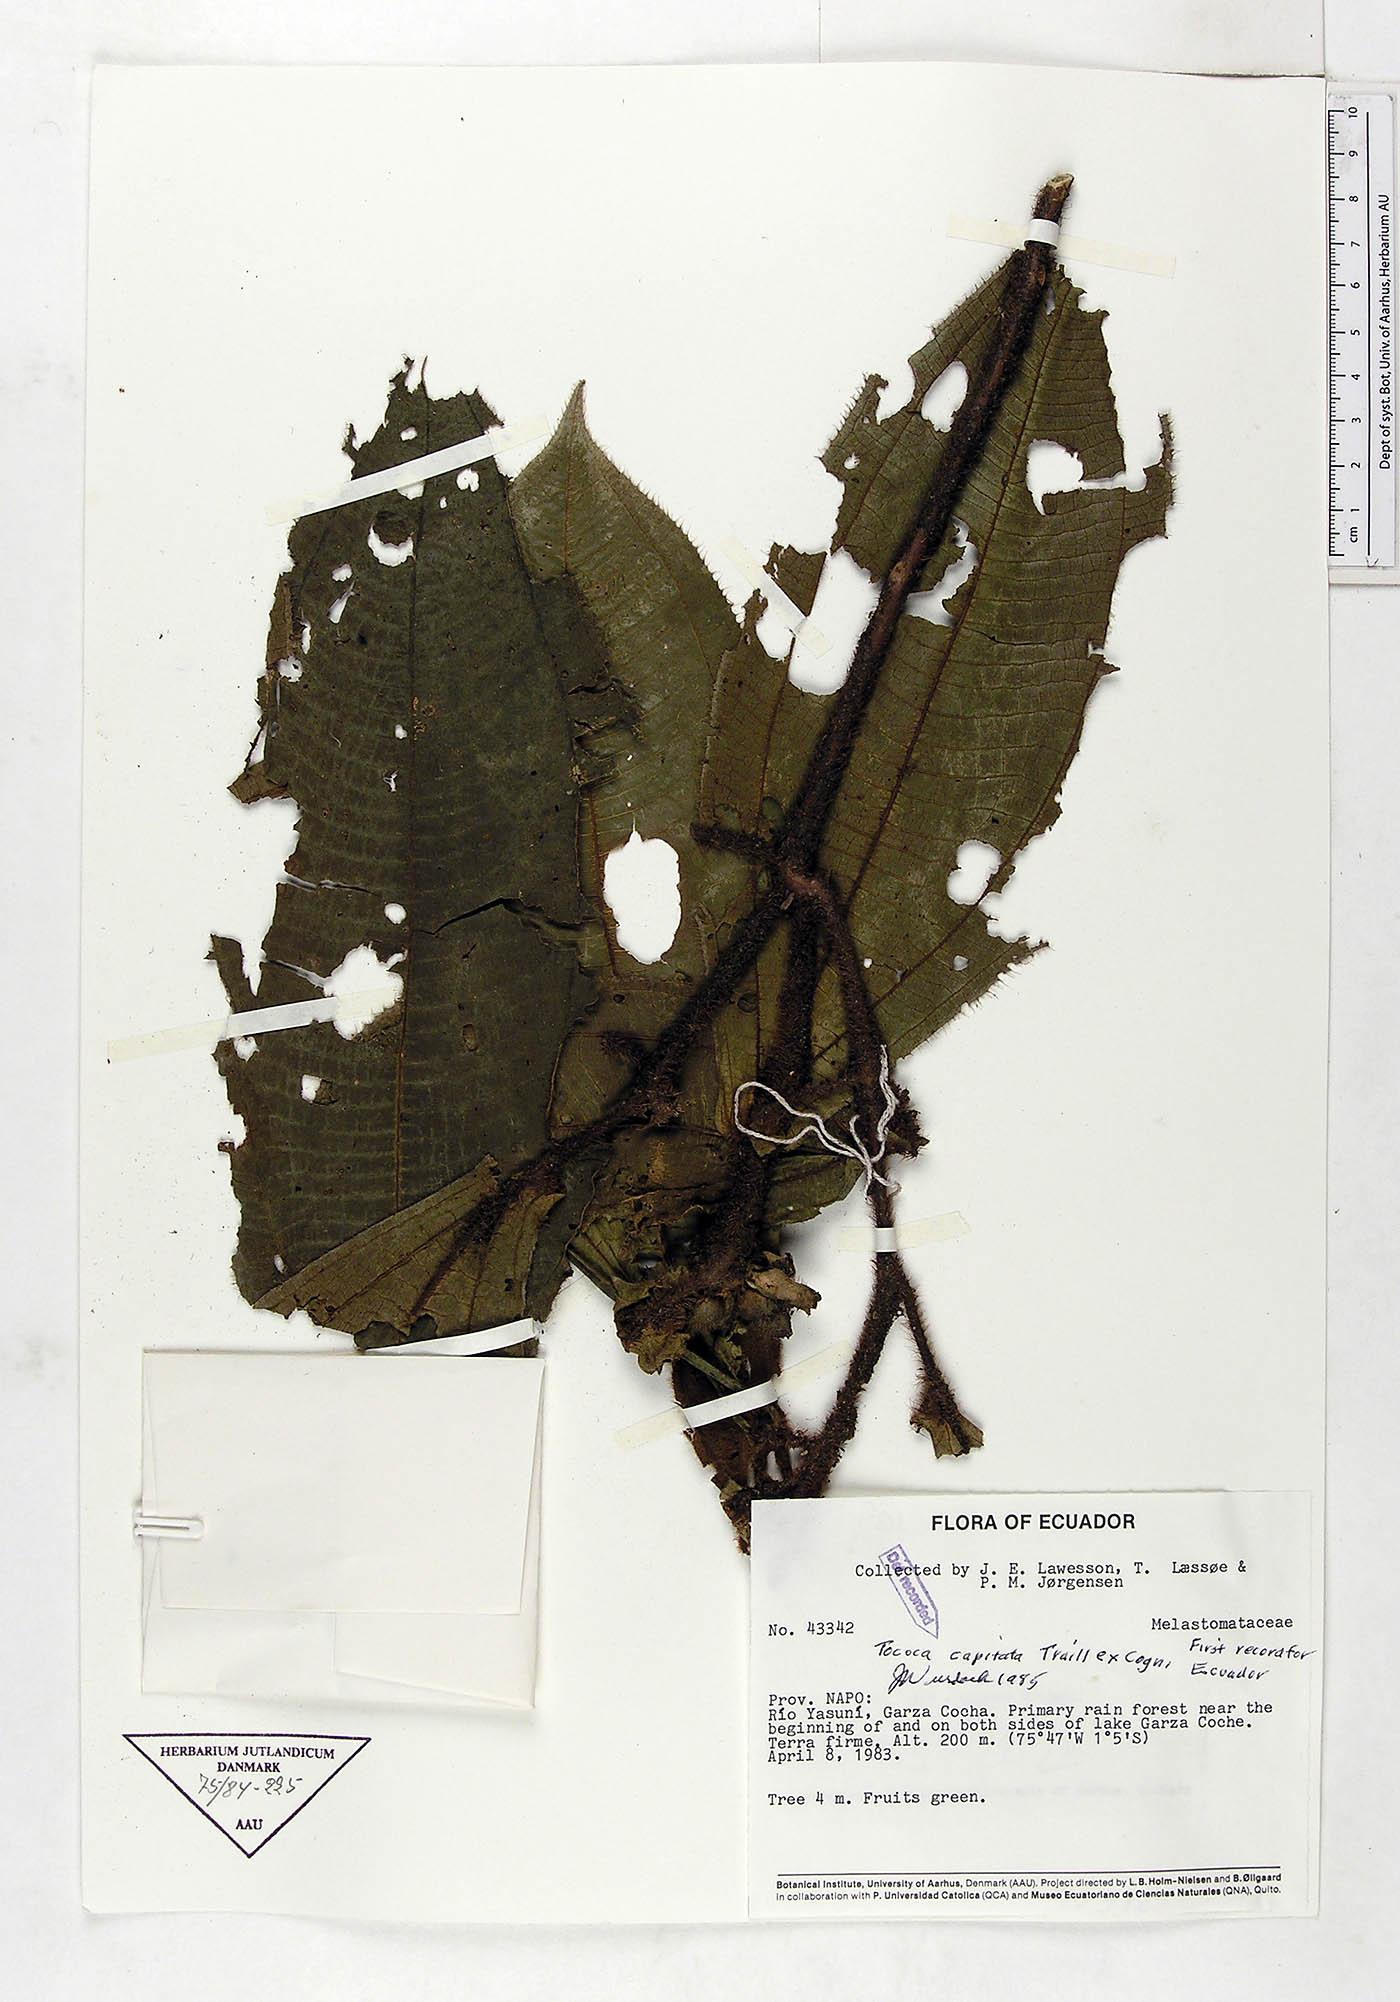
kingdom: Plantae
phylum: Tracheophyta
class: Magnoliopsida
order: Myrtales
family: Melastomataceae
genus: Miconia
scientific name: Miconia tococapitata
